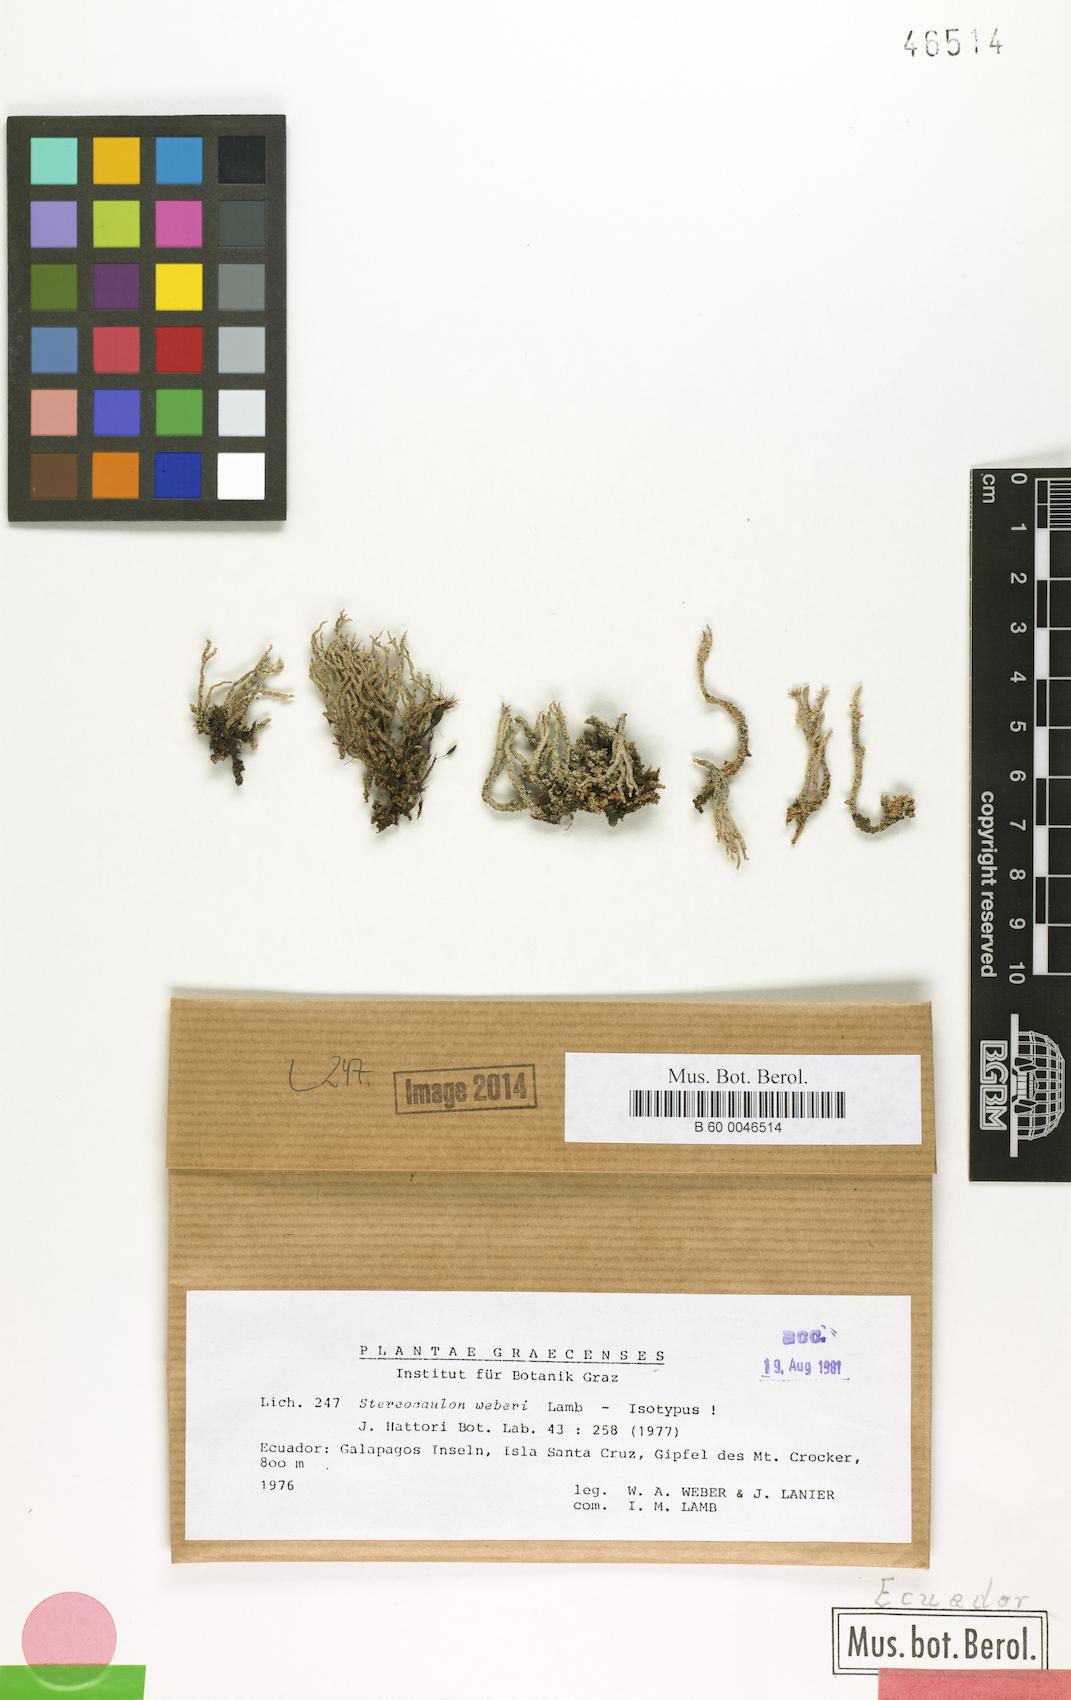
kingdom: Fungi
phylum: Ascomycota
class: Lecanoromycetes
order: Lecanorales
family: Stereocaulaceae
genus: Stereocaulon
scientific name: Stereocaulon weberi
